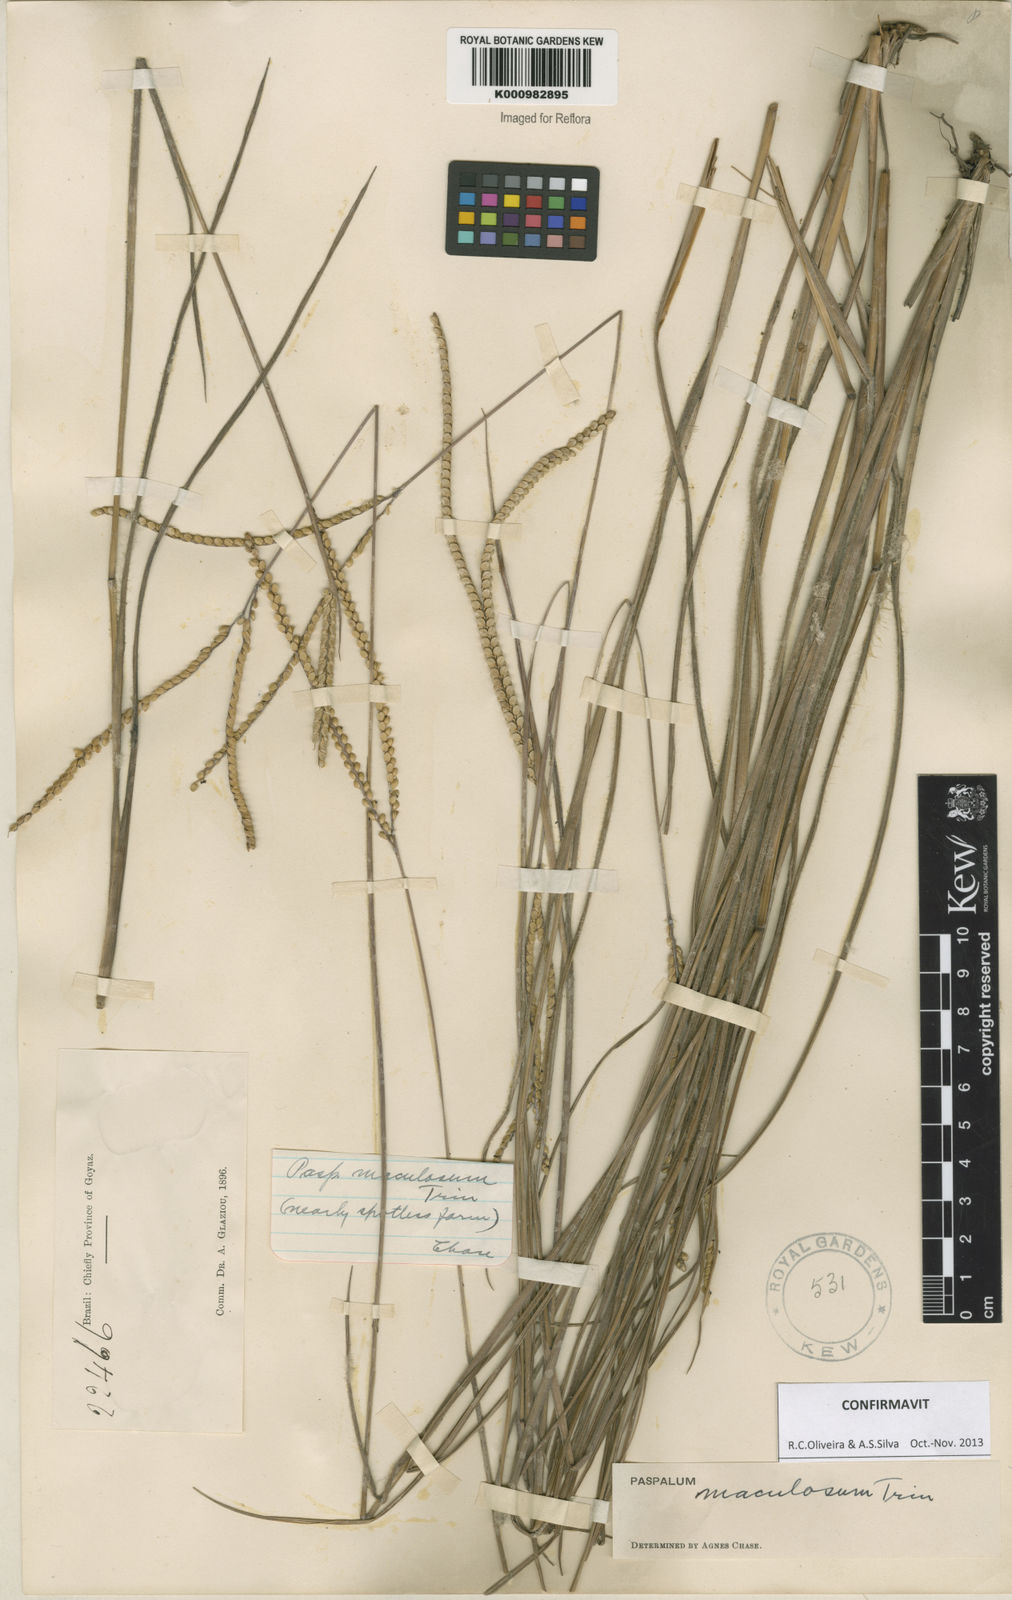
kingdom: Plantae
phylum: Tracheophyta
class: Liliopsida
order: Poales
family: Poaceae
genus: Paspalum
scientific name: Paspalum maculosum
